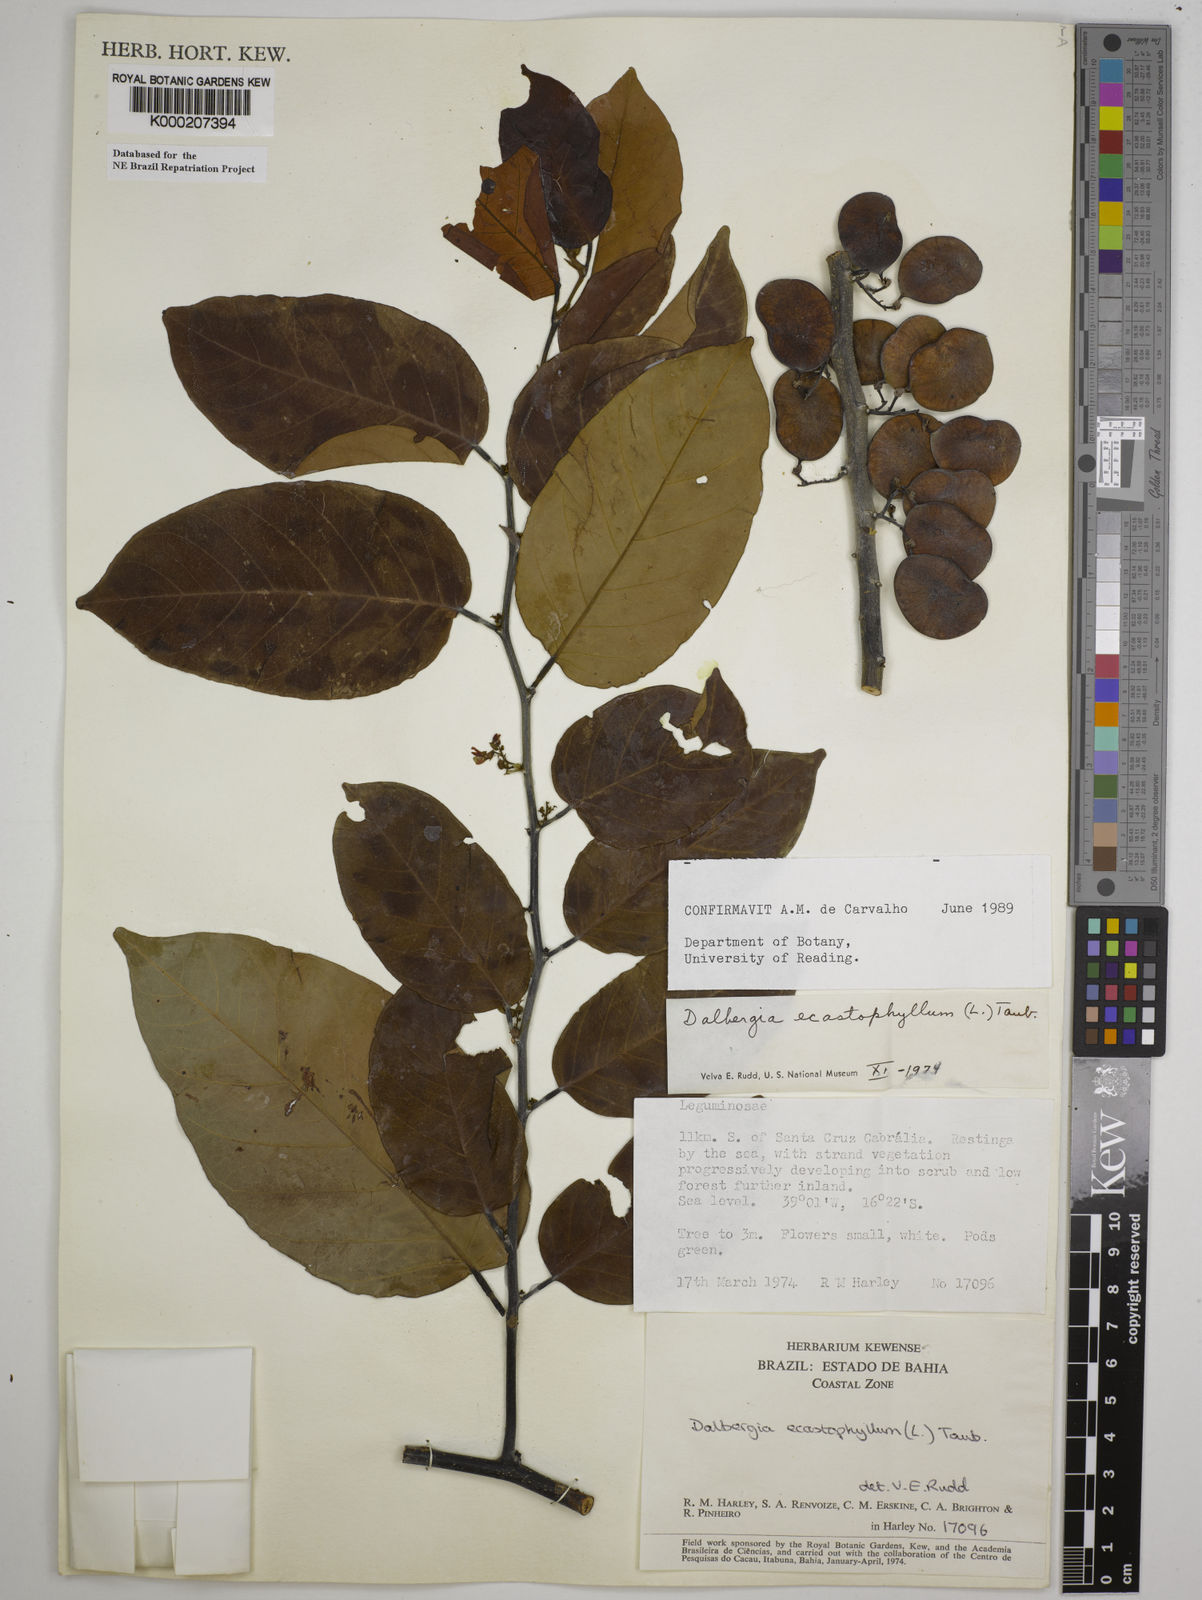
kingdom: Plantae
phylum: Tracheophyta
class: Magnoliopsida
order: Fabales
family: Fabaceae
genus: Dalbergia
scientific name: Dalbergia
